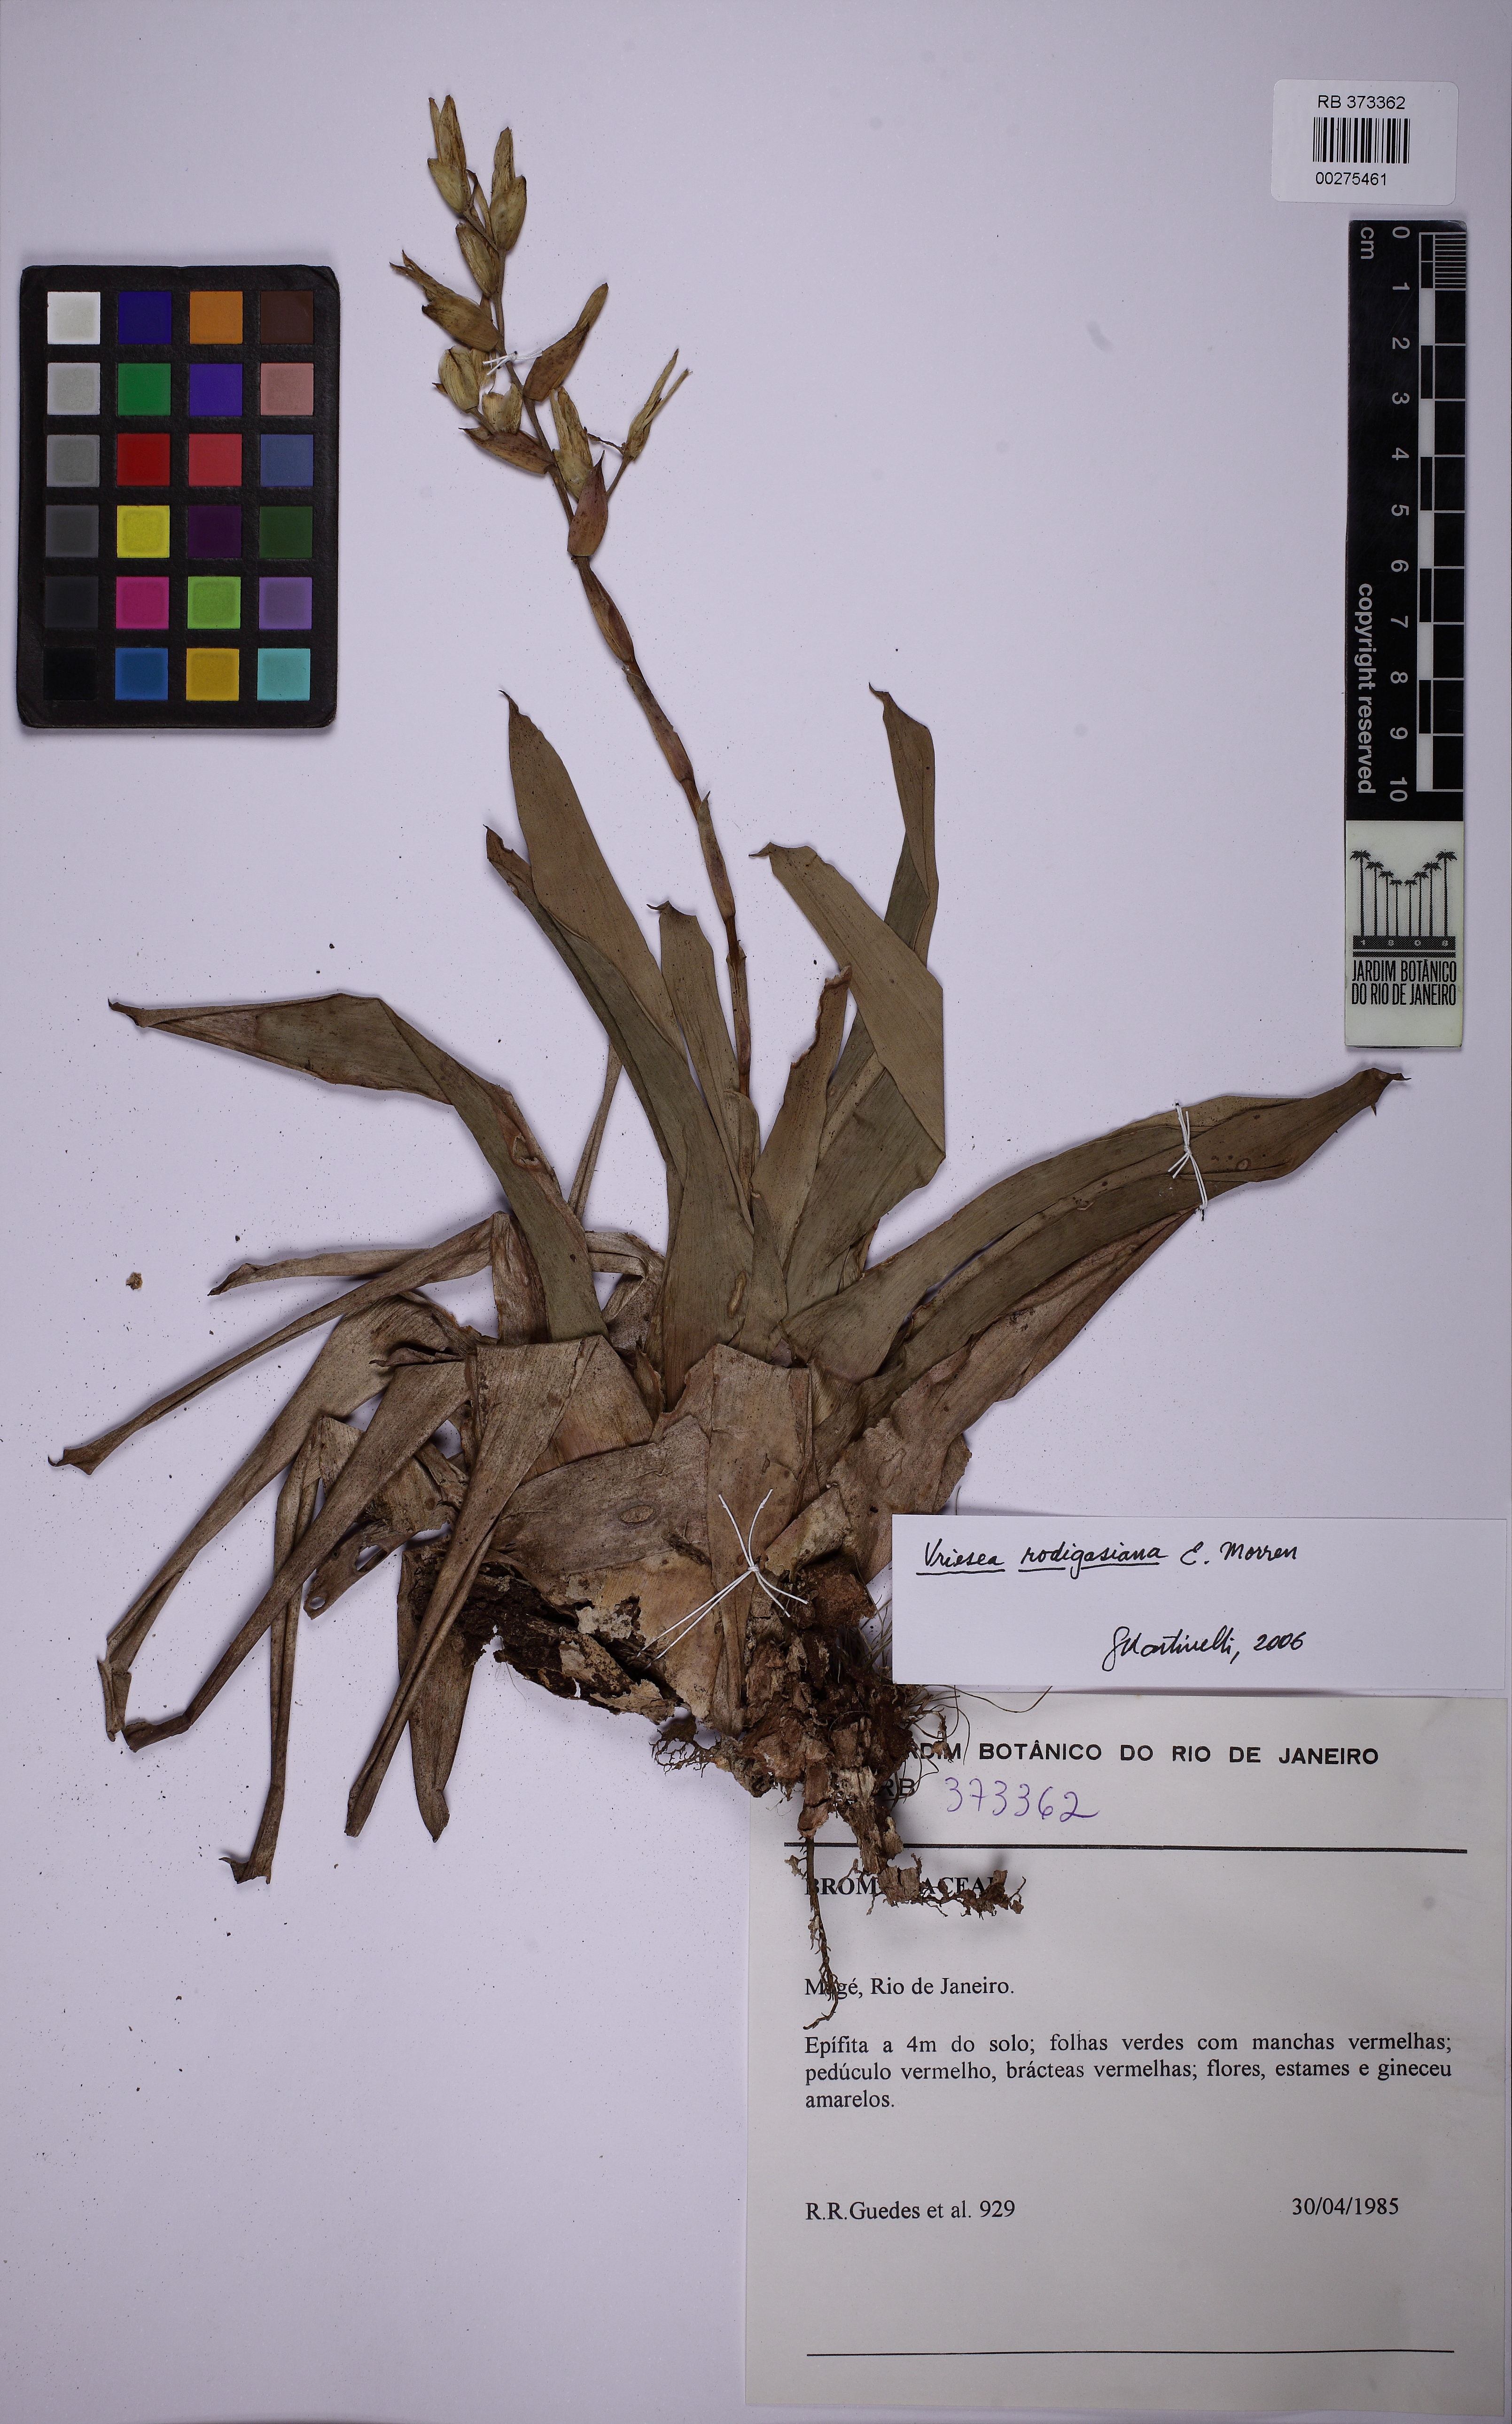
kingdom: Plantae
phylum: Tracheophyta
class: Liliopsida
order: Poales
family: Bromeliaceae
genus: Vriesea
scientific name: Vriesea rodigasiana
